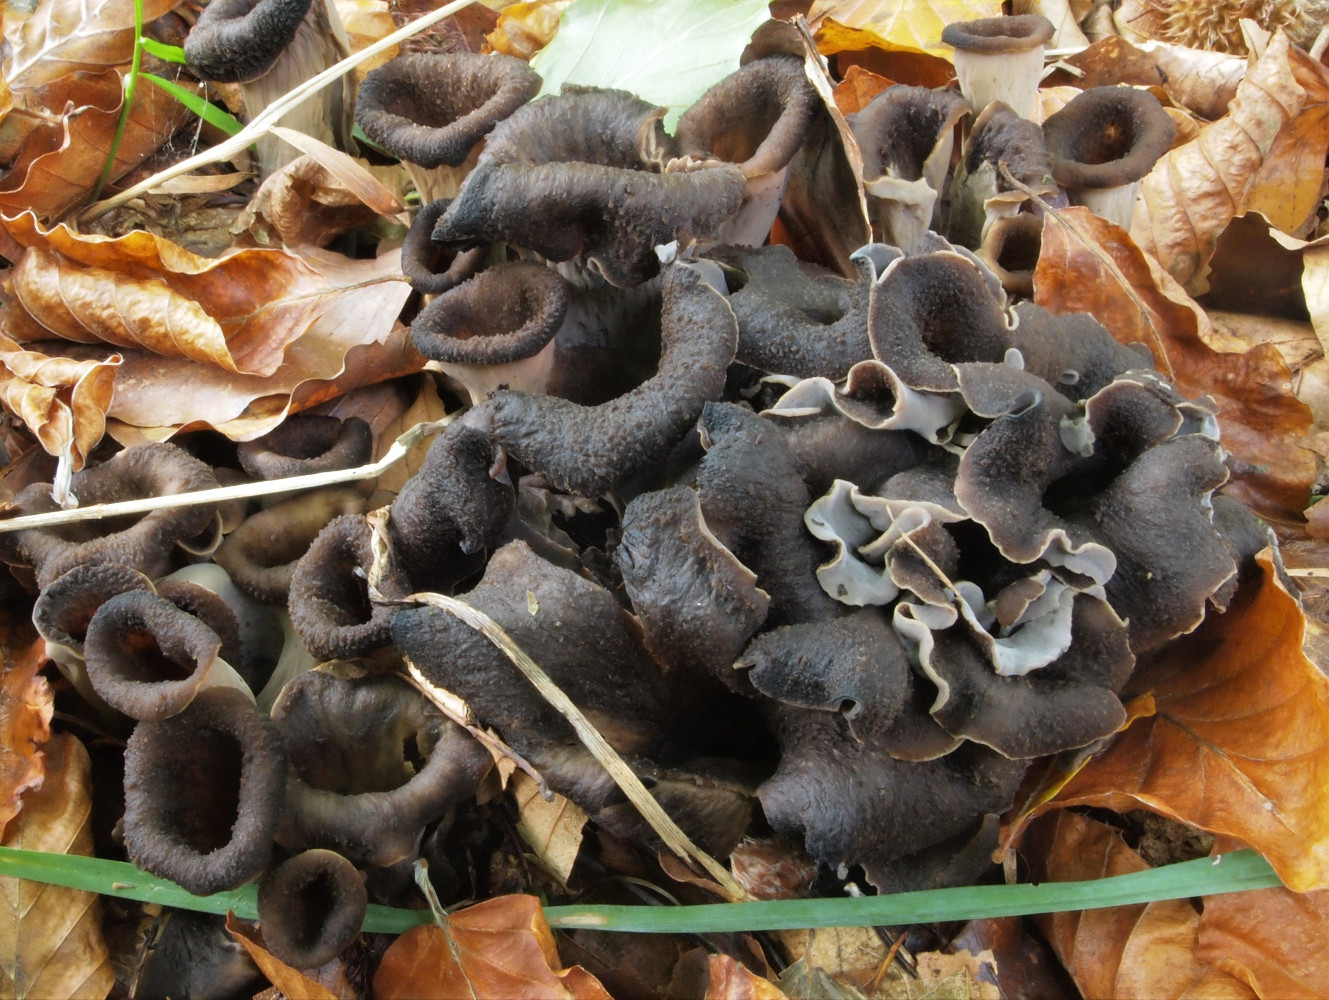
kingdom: Fungi
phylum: Basidiomycota
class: Agaricomycetes
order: Cantharellales
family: Hydnaceae
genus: Craterellus
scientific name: Craterellus cornucopioides
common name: trompetsvamp
